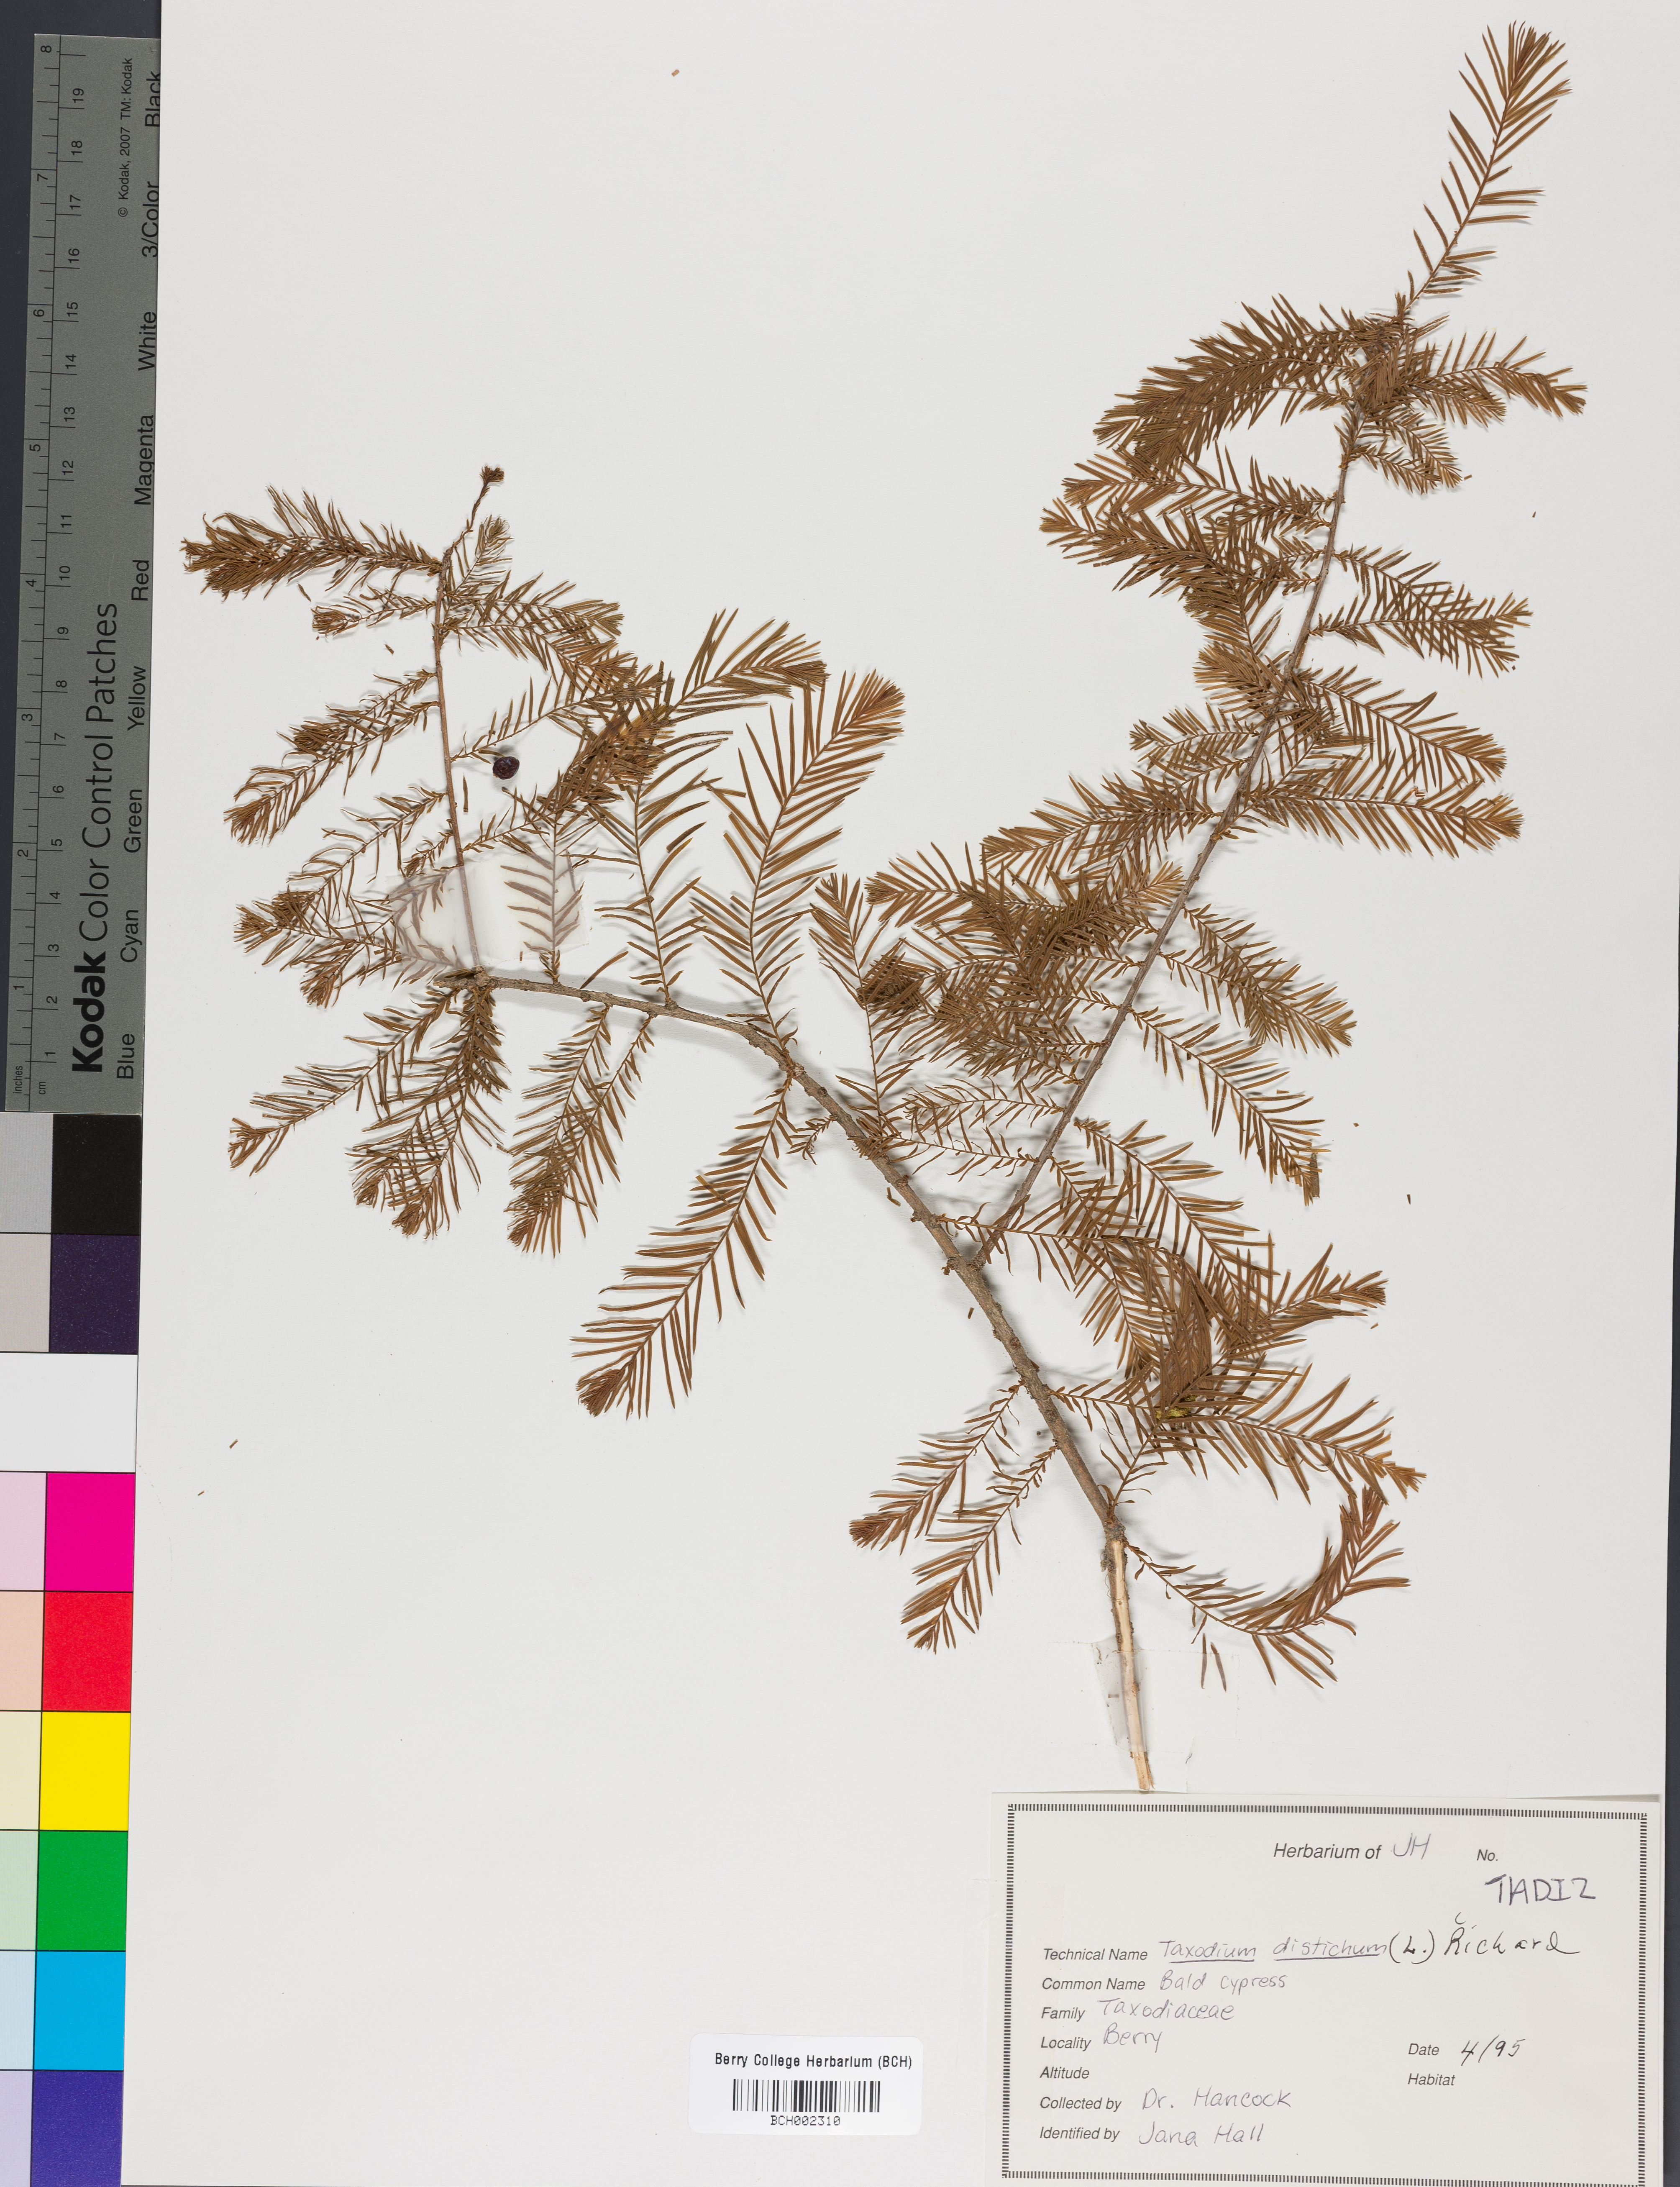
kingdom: Plantae
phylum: Tracheophyta
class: Pinopsida
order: Pinales
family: Cupressaceae
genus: Taxodium
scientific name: Taxodium distichum
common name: Bald cypress
